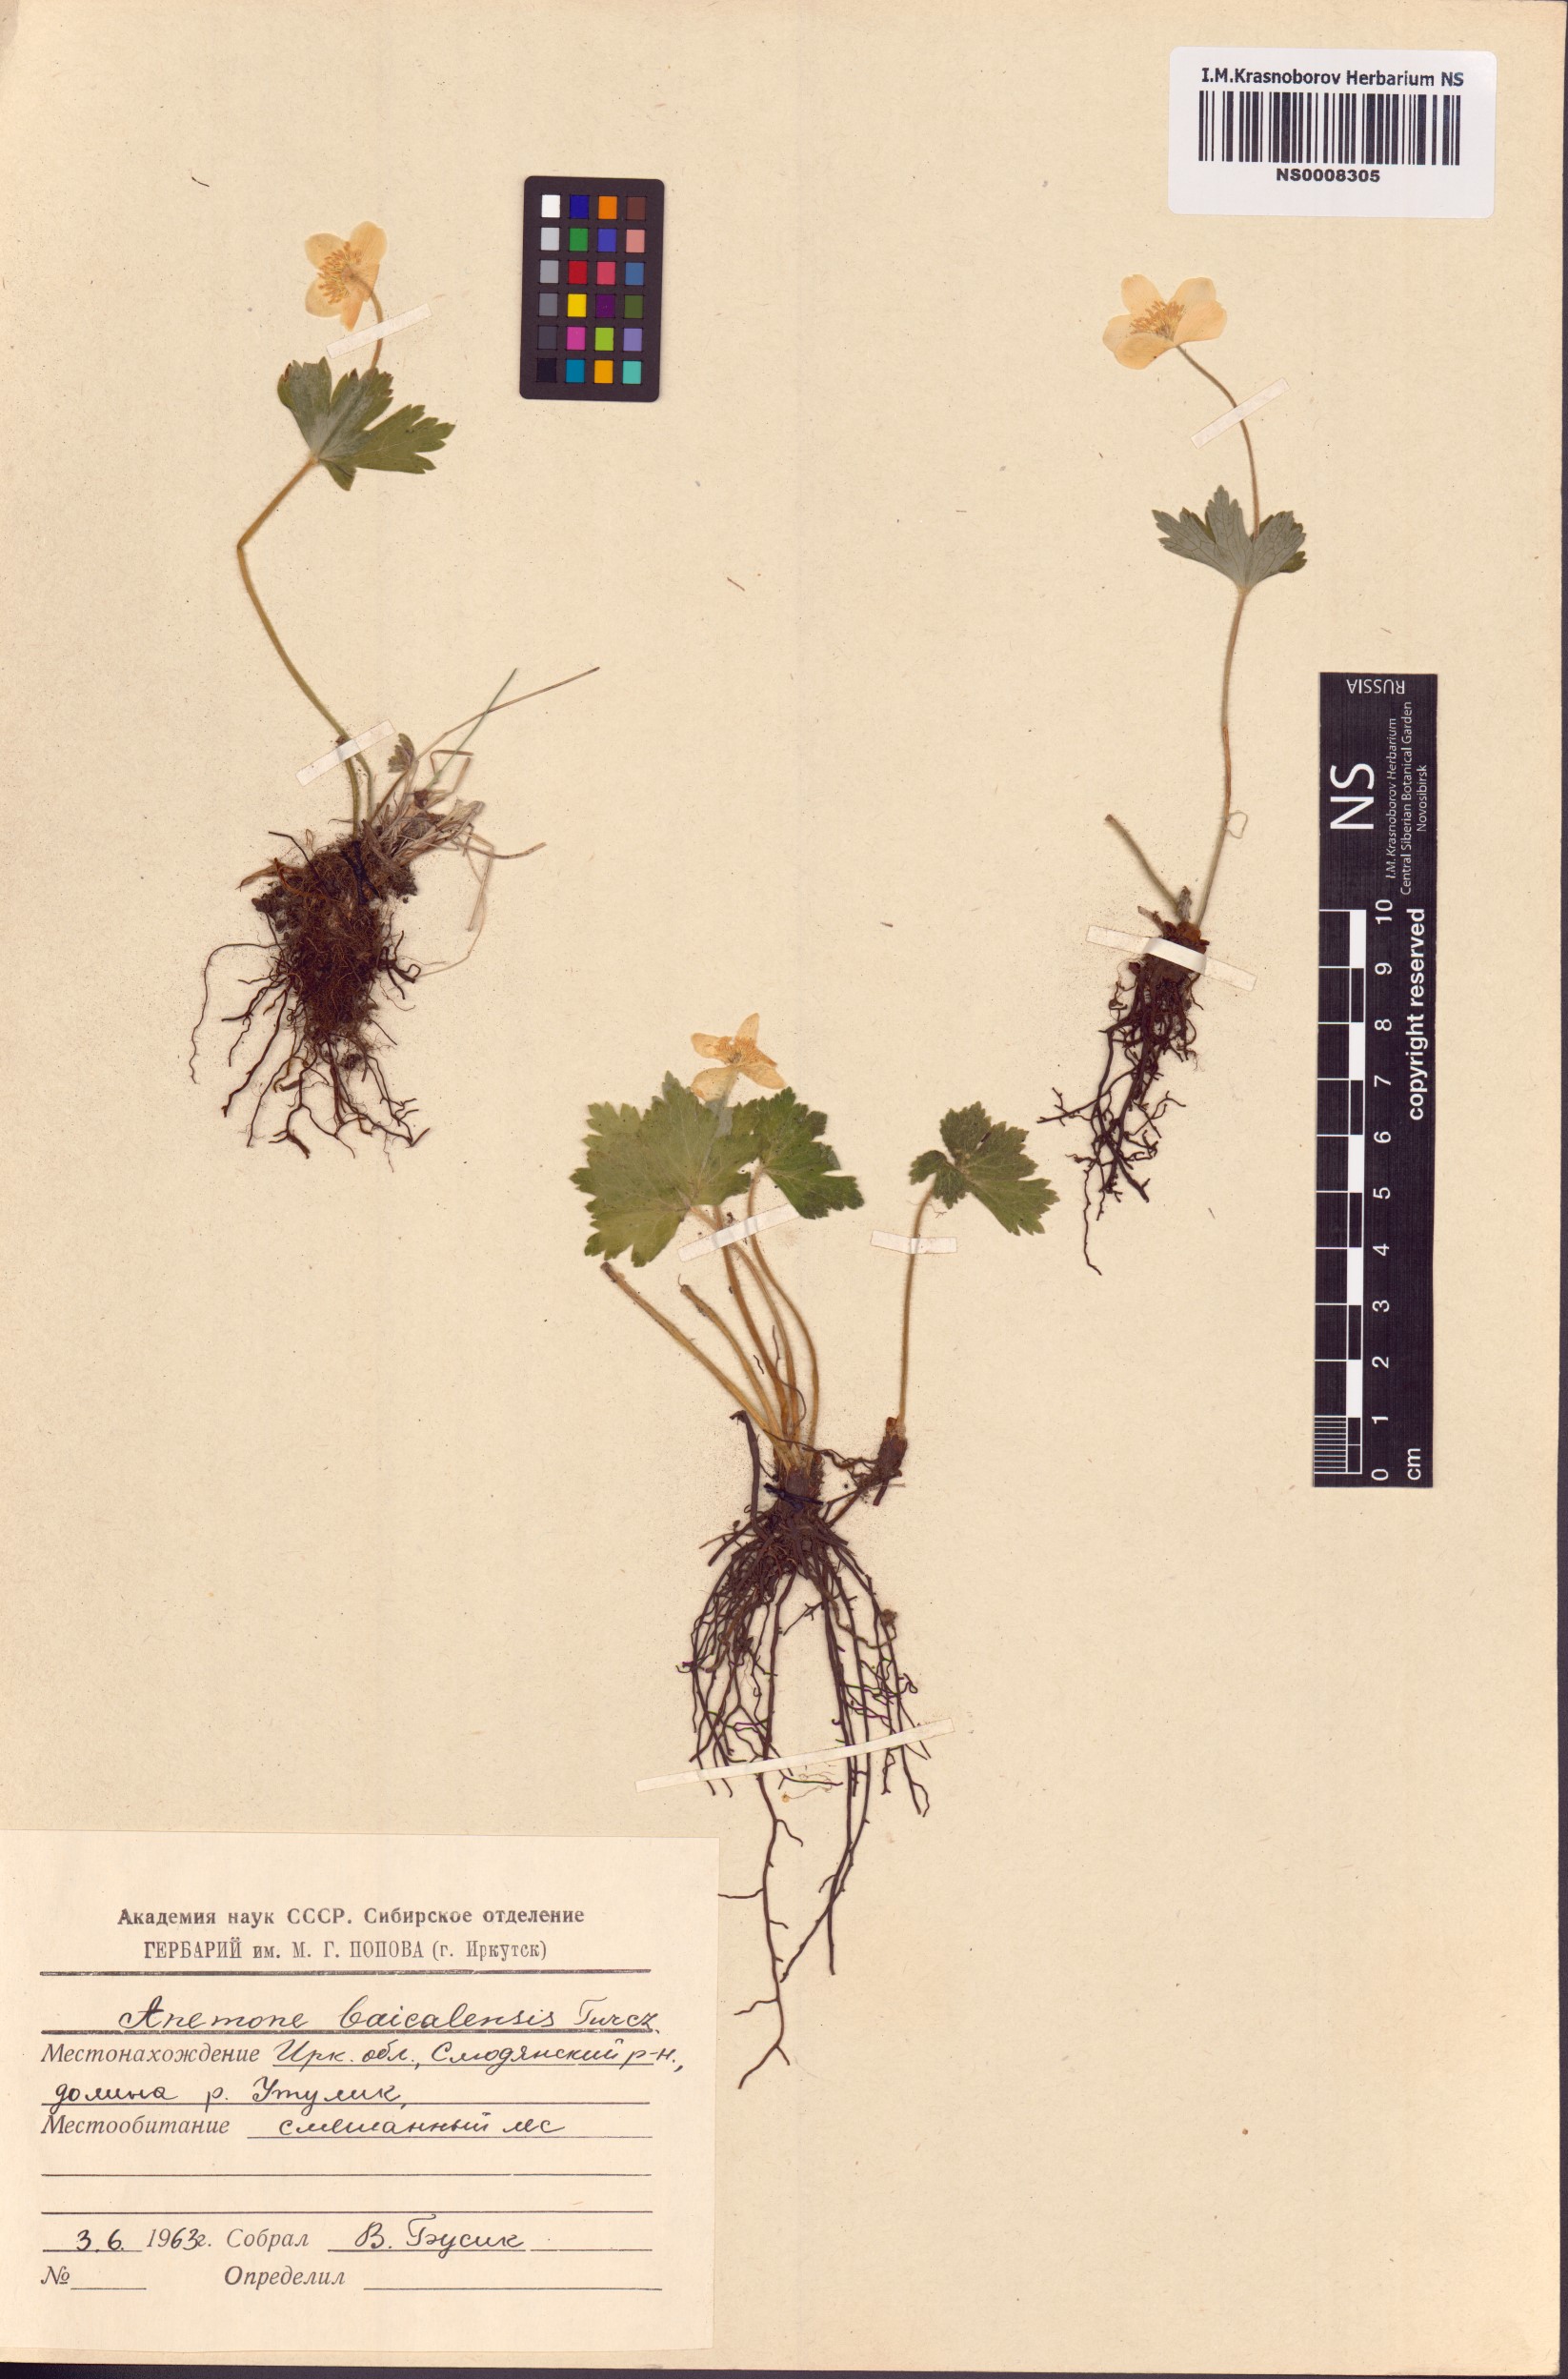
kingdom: Plantae
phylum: Tracheophyta
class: Magnoliopsida
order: Ranunculales
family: Ranunculaceae
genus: Anemonastrum
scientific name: Anemonastrum baicalense
